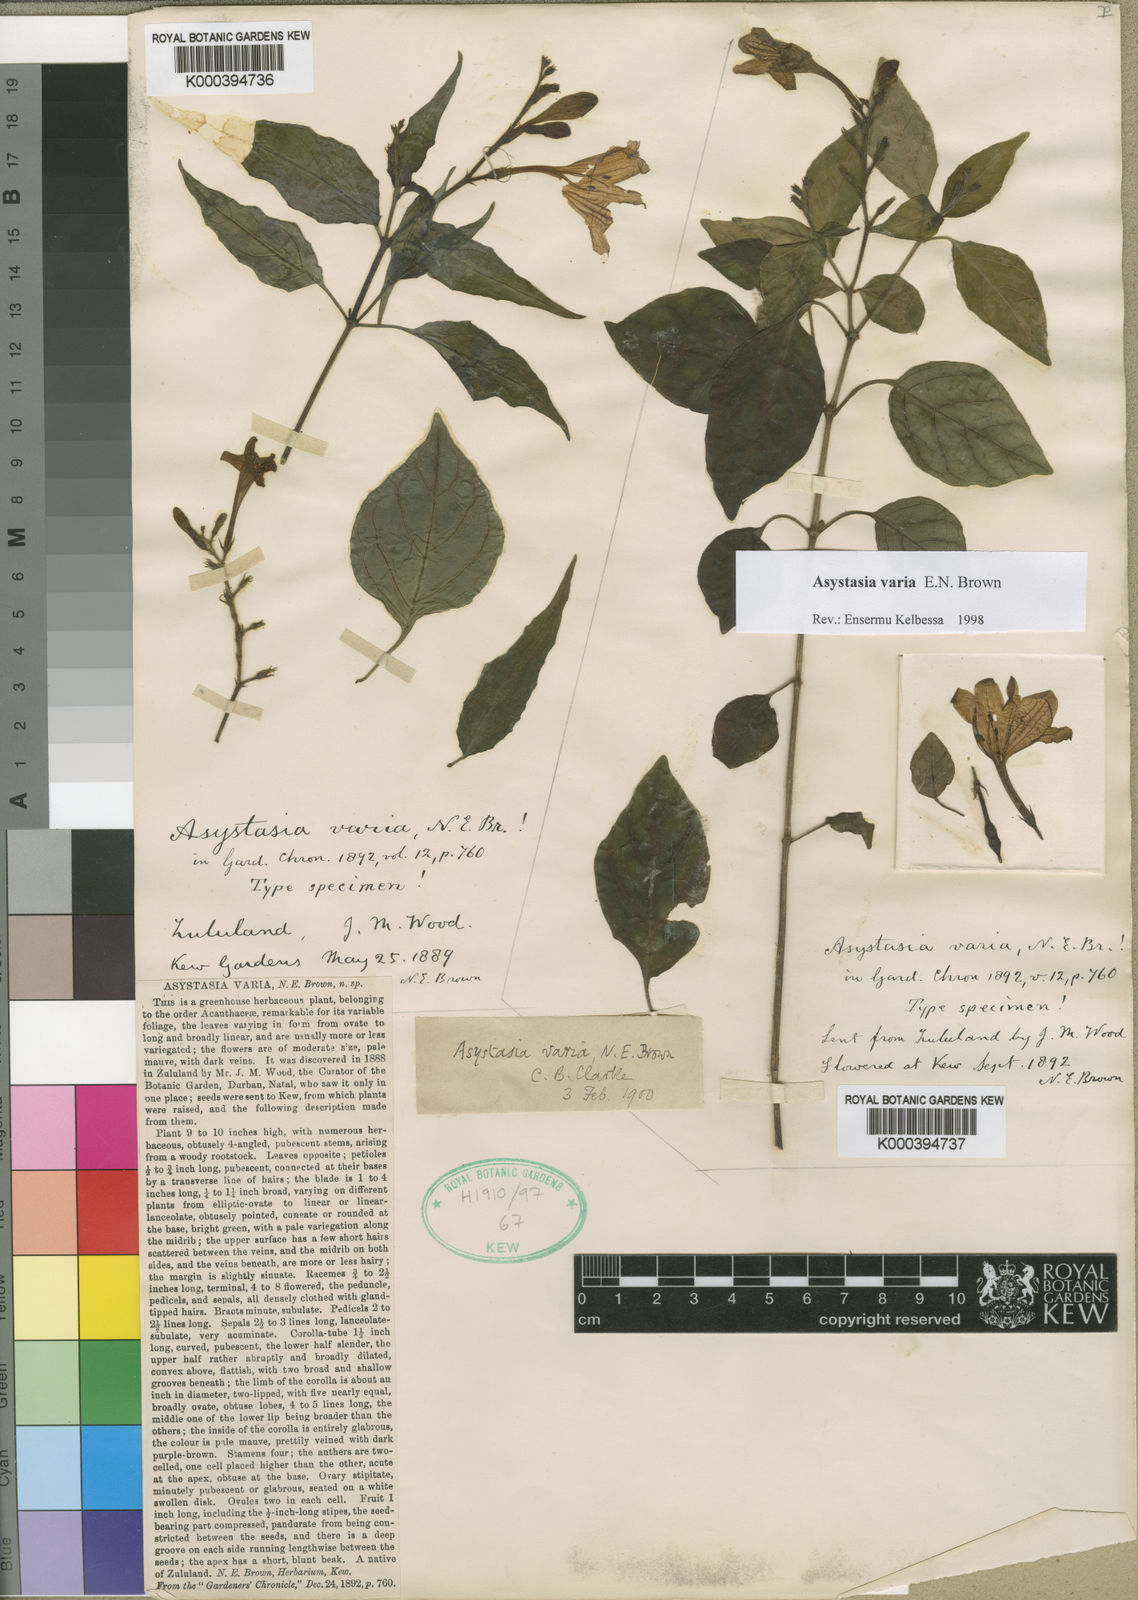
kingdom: Plantae
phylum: Tracheophyta
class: Magnoliopsida
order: Lamiales
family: Acanthaceae
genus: Asystasia
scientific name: Asystasia varia
